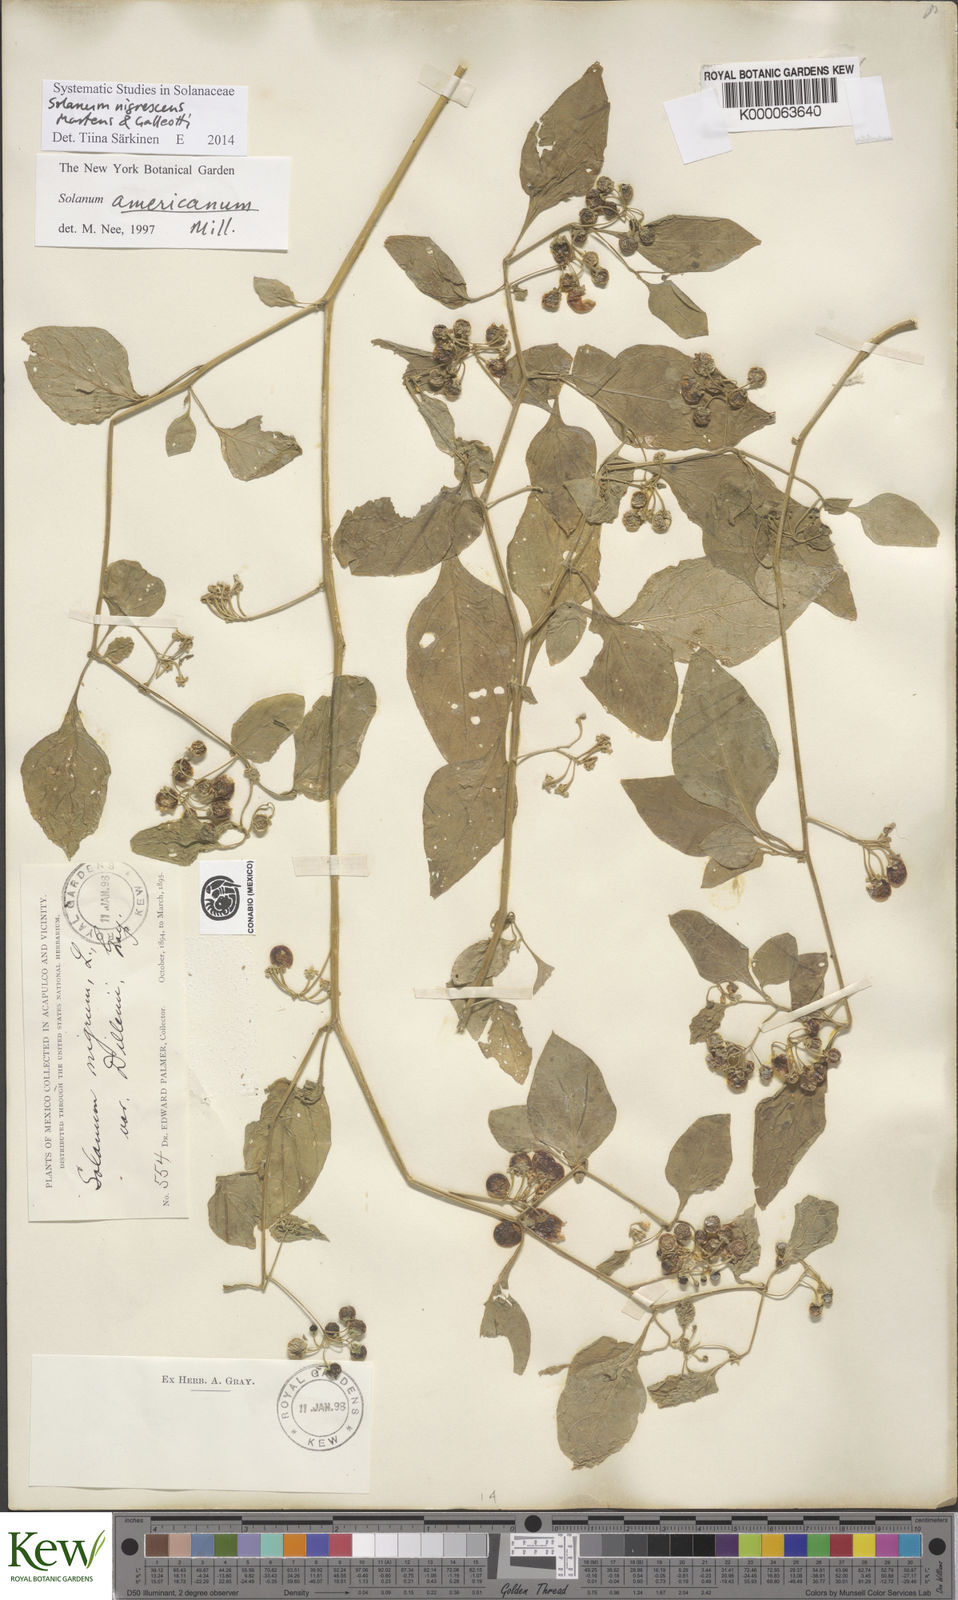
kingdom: Plantae
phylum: Tracheophyta
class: Magnoliopsida
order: Solanales
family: Solanaceae
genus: Solanum
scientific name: Solanum americanum
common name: American black nightshade
